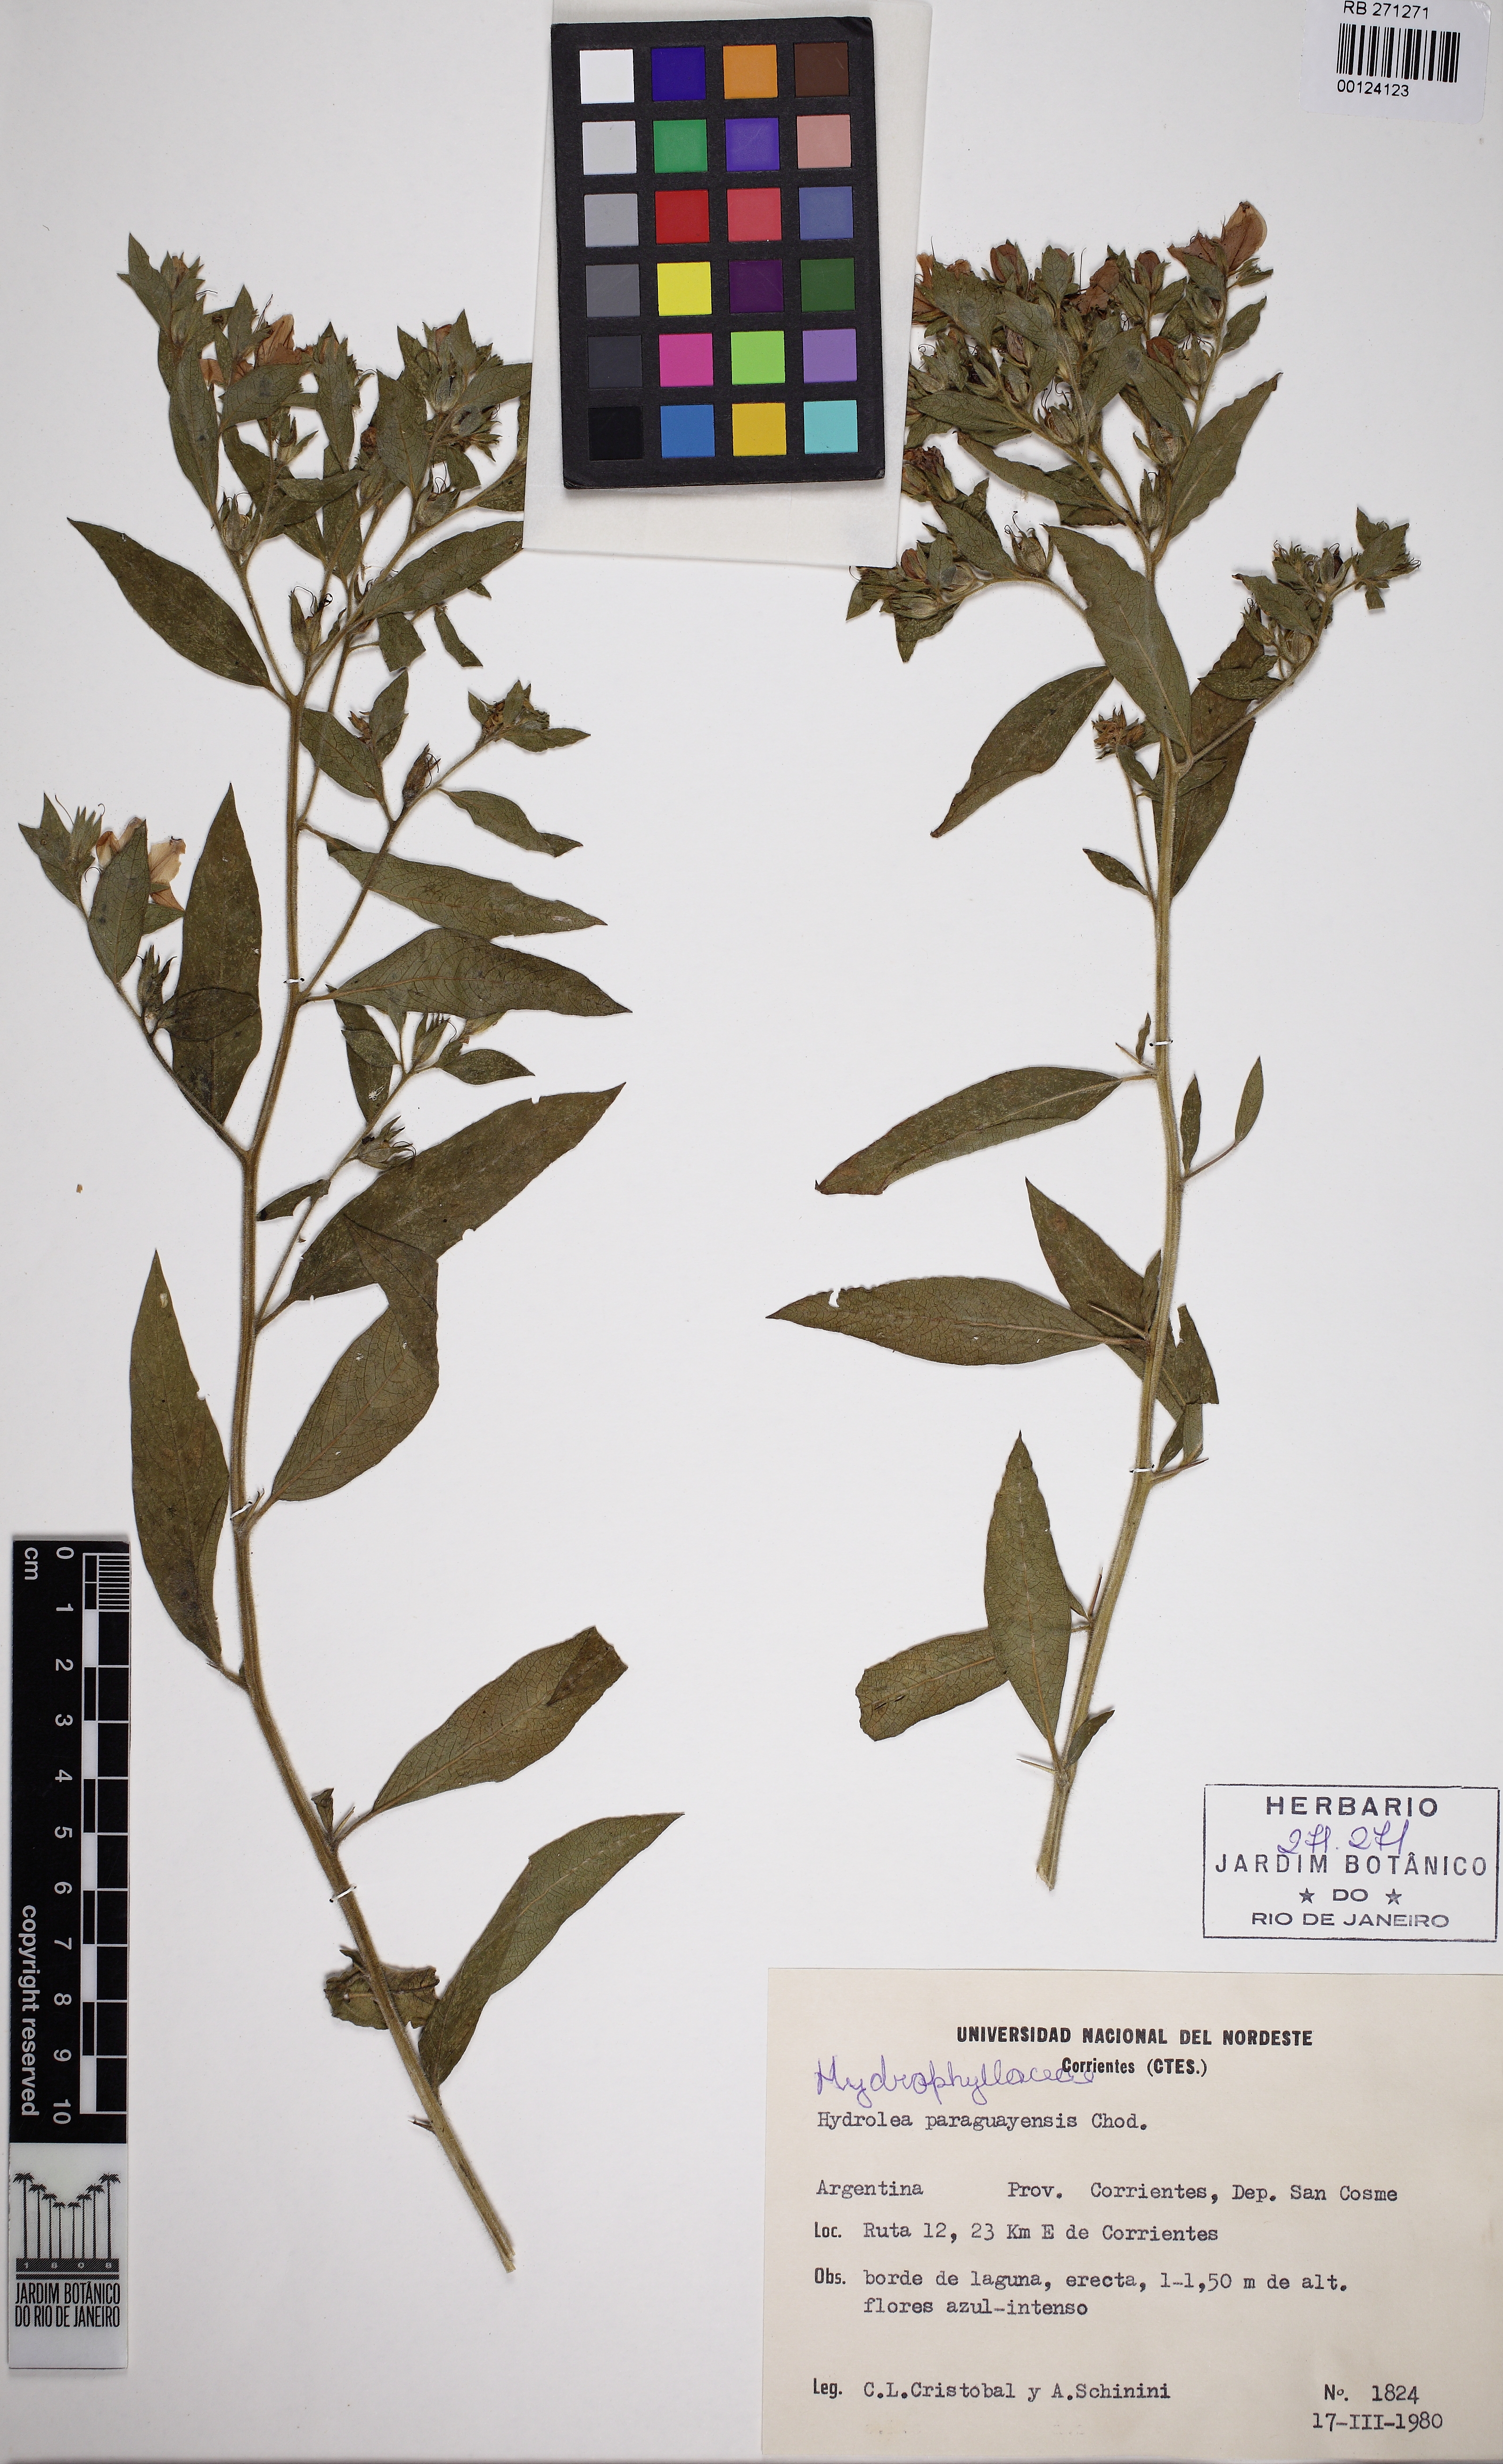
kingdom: Plantae
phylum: Tracheophyta
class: Magnoliopsida
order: Solanales
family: Hydroleaceae
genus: Hydrolea
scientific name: Hydrolea spinosa
